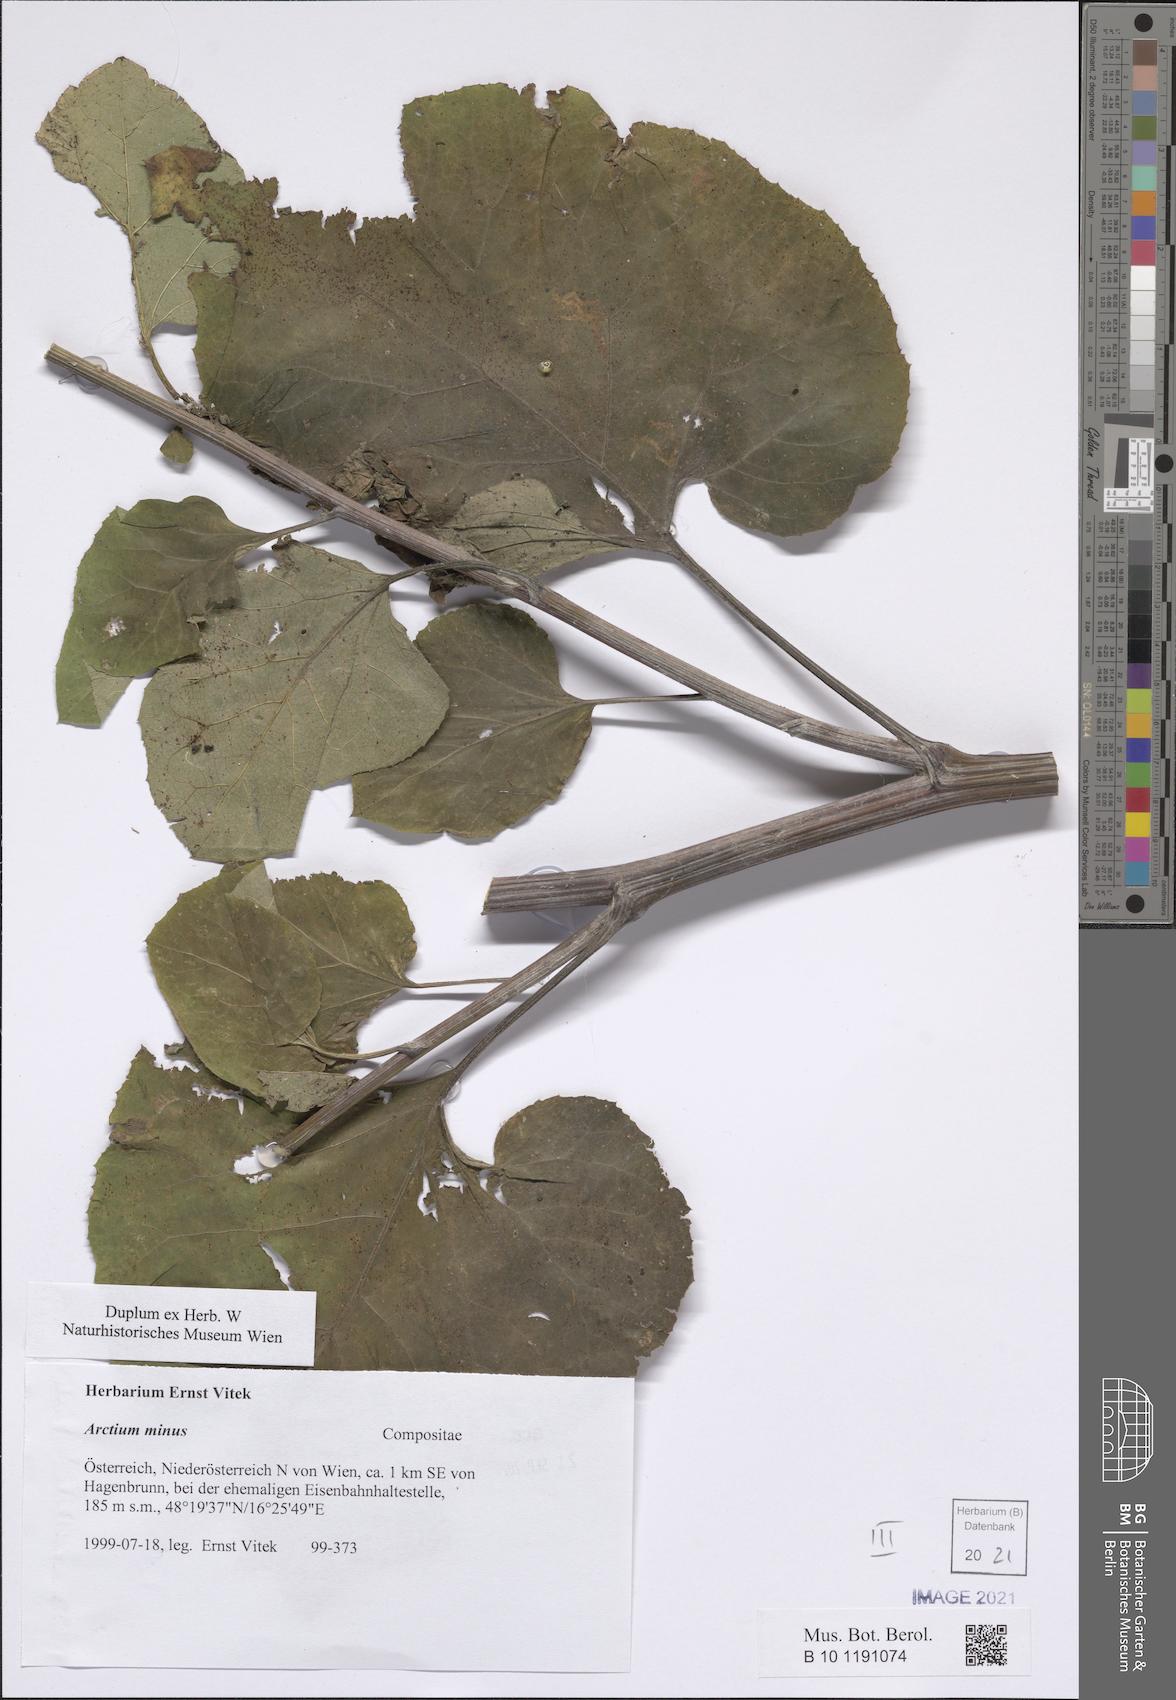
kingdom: Plantae
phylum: Tracheophyta
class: Magnoliopsida
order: Asterales
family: Asteraceae
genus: Arctium
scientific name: Arctium minus
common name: Lesser burdock
